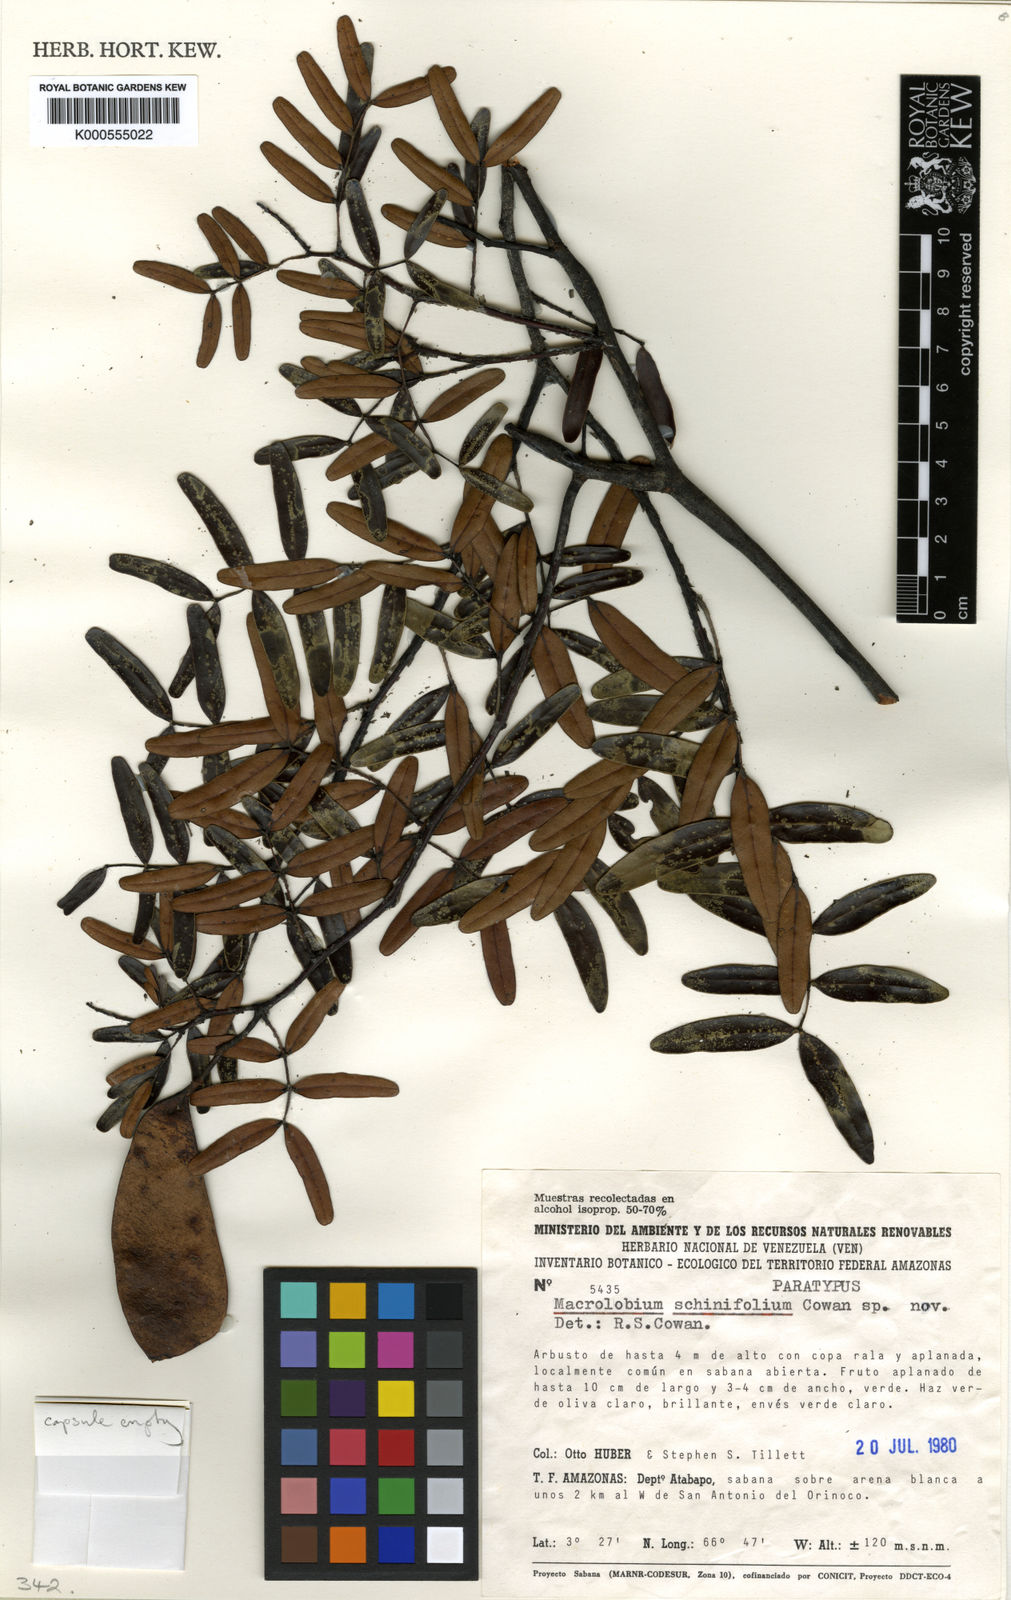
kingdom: Plantae
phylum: Tracheophyta
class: Magnoliopsida
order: Fabales
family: Fabaceae
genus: Macrolobium
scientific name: Macrolobium schinifolium
